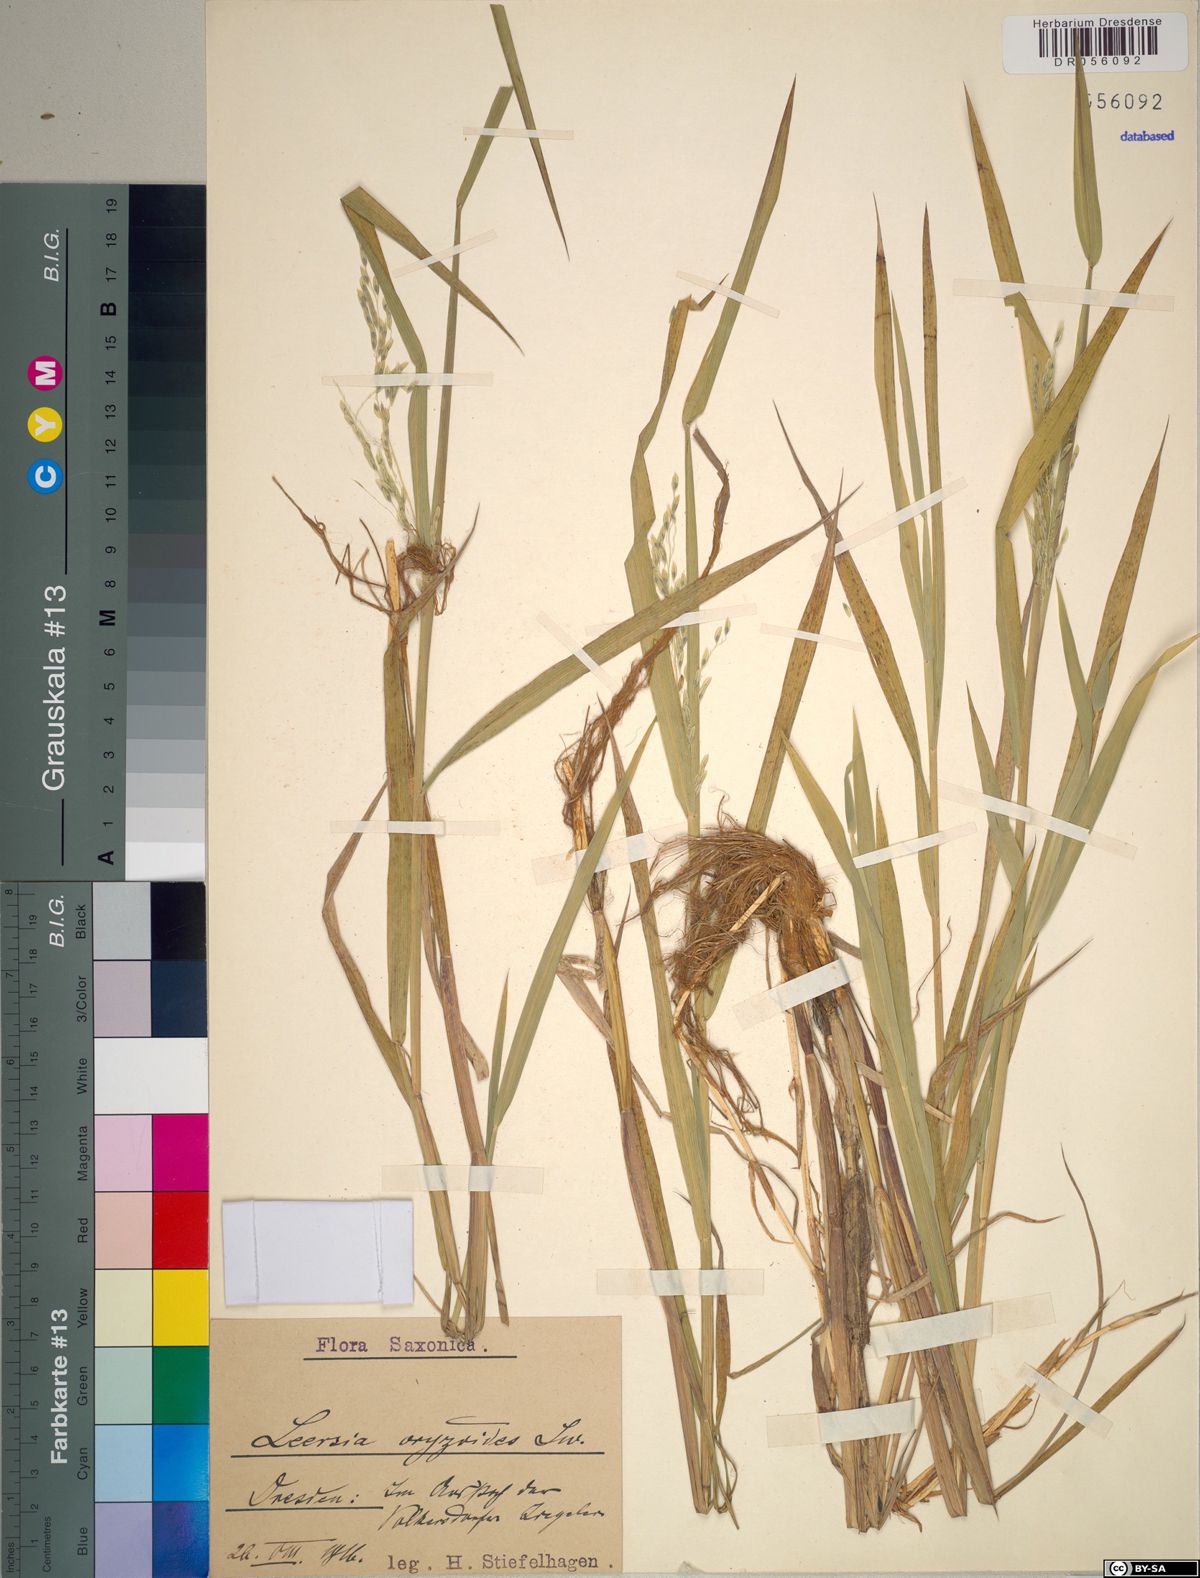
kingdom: Plantae
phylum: Tracheophyta
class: Liliopsida
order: Poales
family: Poaceae
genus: Leersia
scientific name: Leersia oryzoides
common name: Cut-grass
